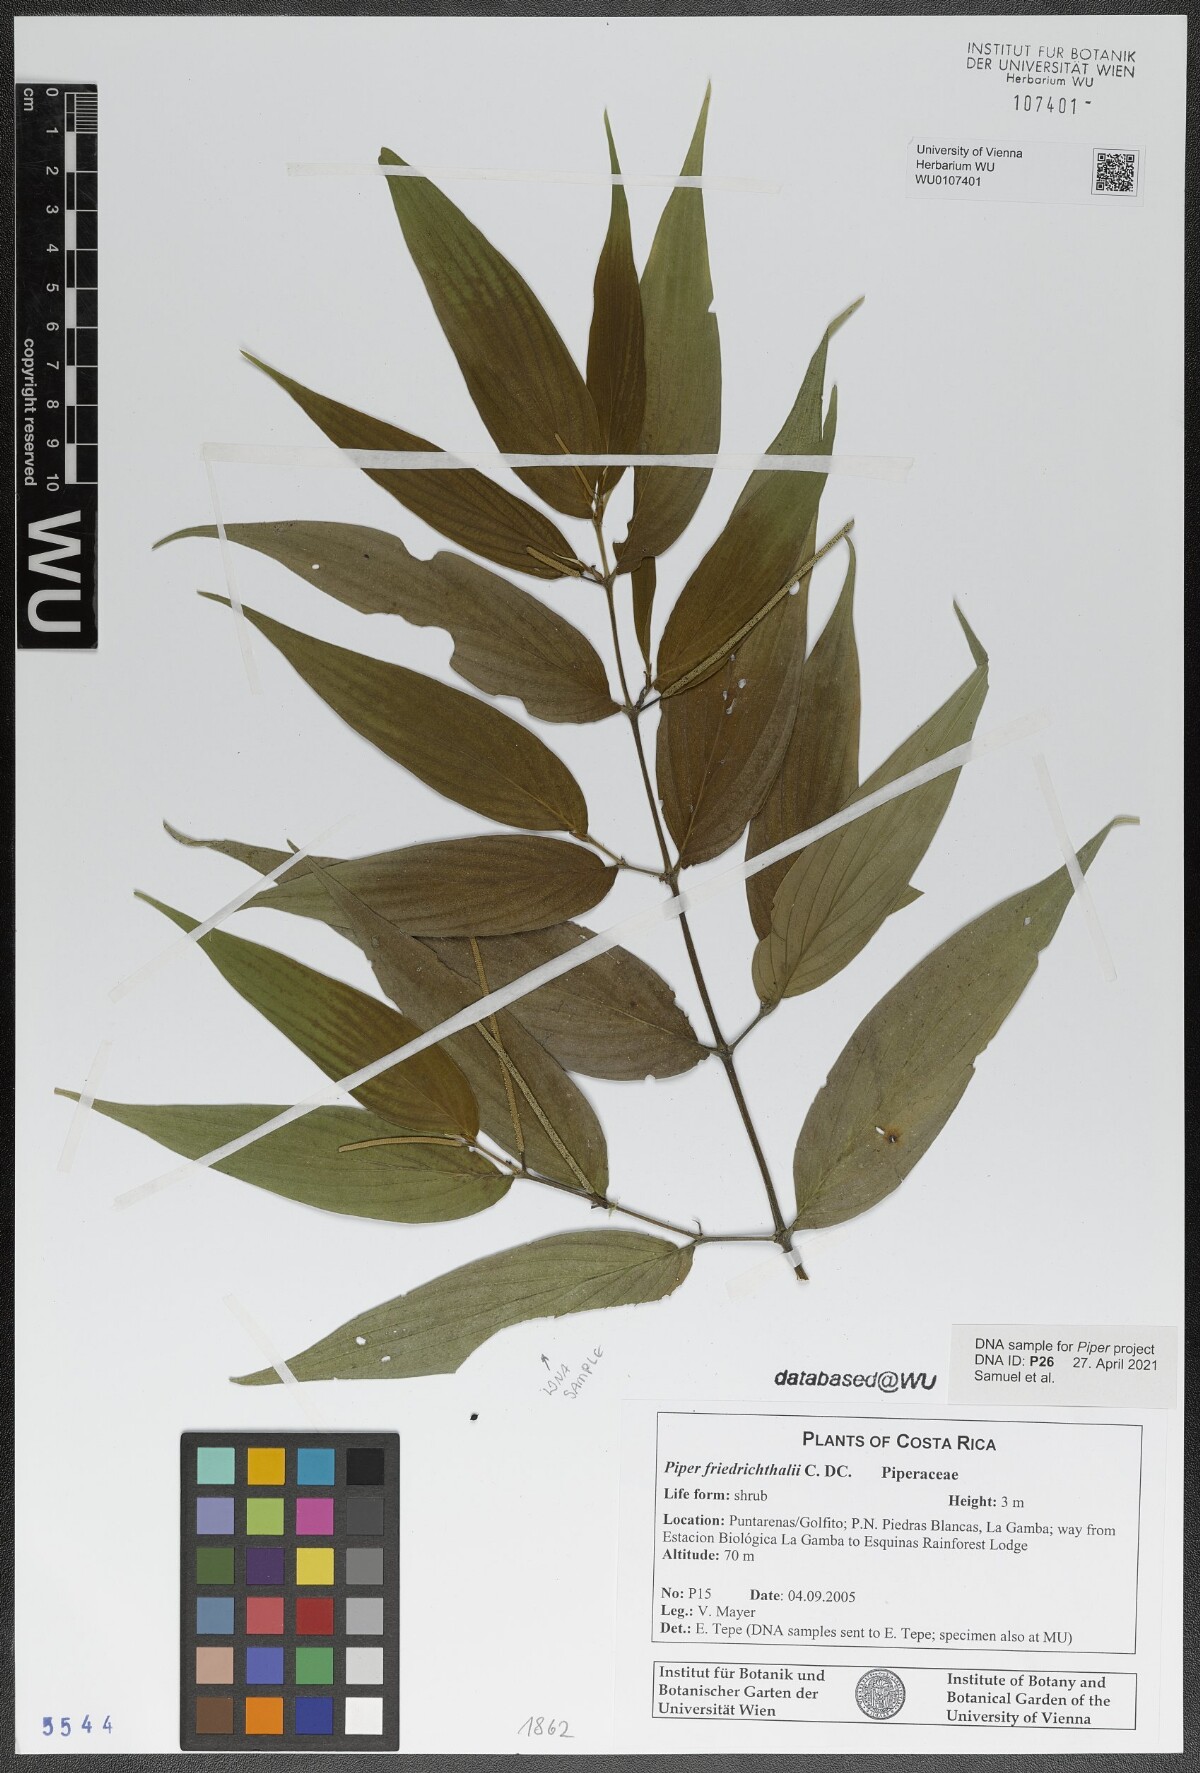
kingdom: Plantae
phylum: Tracheophyta
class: Magnoliopsida
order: Piperales
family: Piperaceae
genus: Piper
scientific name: Piper friedrichsthalii
